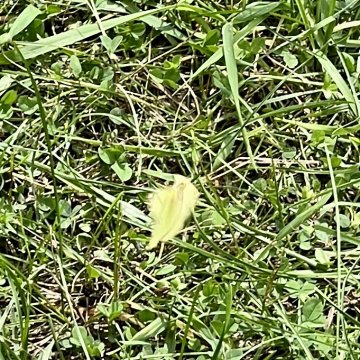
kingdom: Animalia
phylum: Arthropoda
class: Insecta
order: Lepidoptera
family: Pieridae
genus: Colias
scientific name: Colias philodice
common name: Clouded Sulphur
